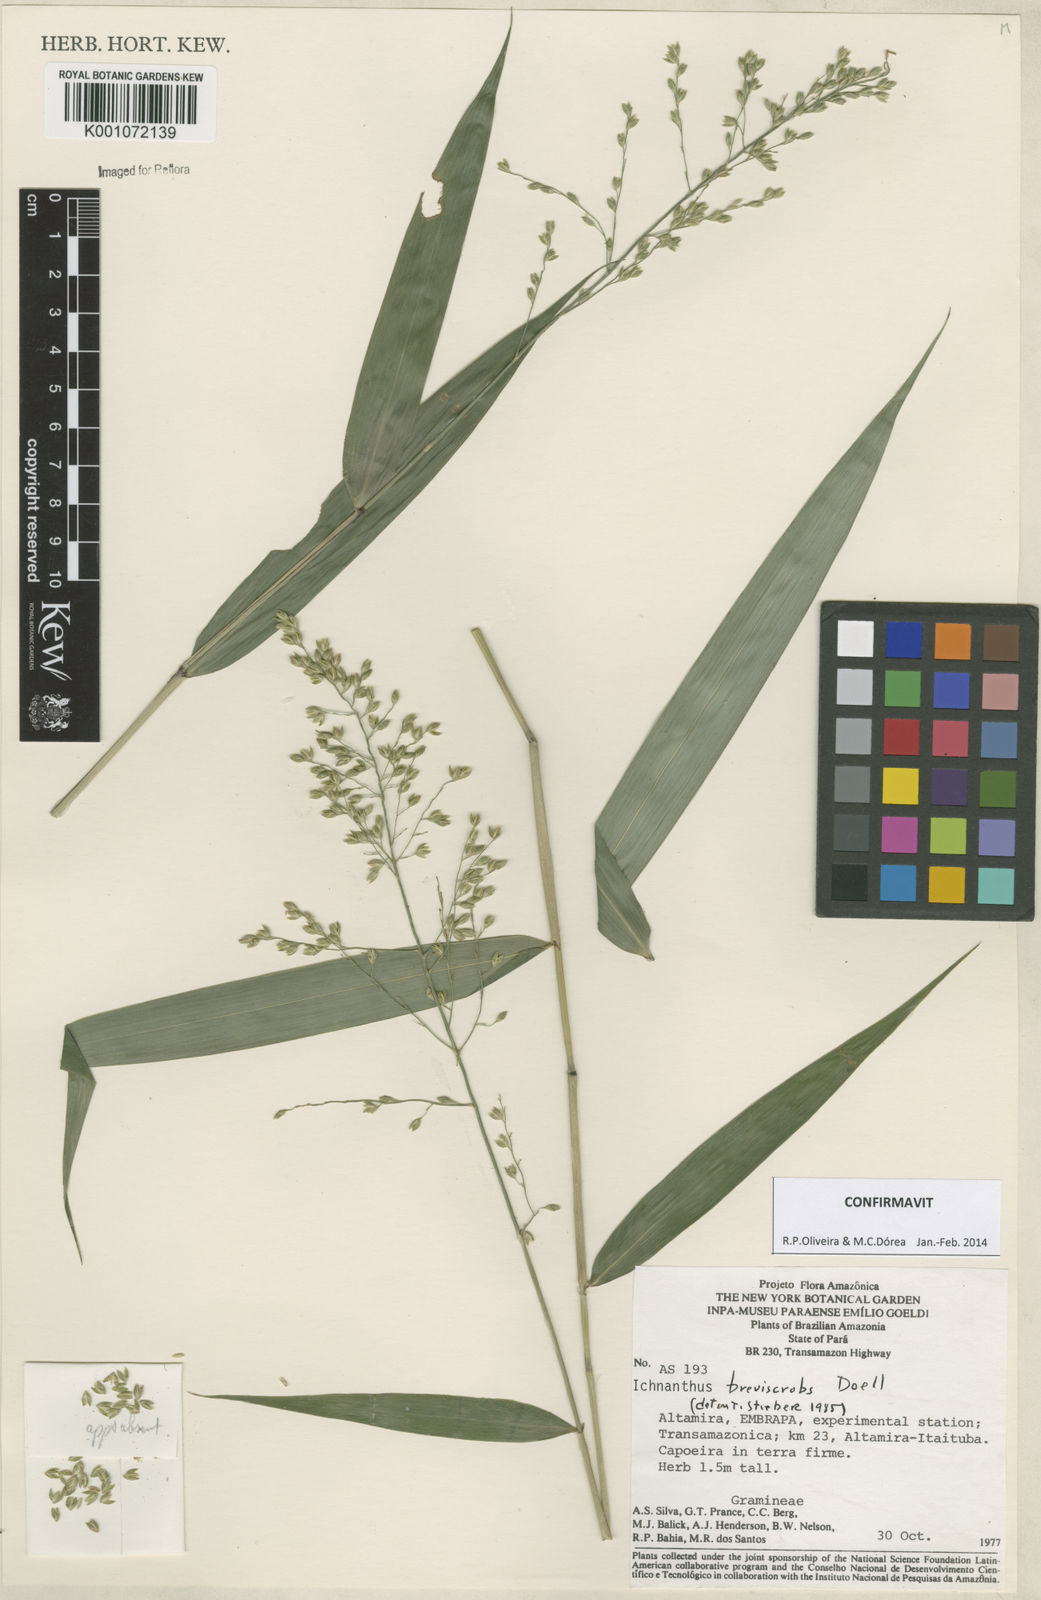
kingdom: Plantae
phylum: Tracheophyta
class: Liliopsida
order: Poales
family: Poaceae
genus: Ichnanthus
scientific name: Ichnanthus
